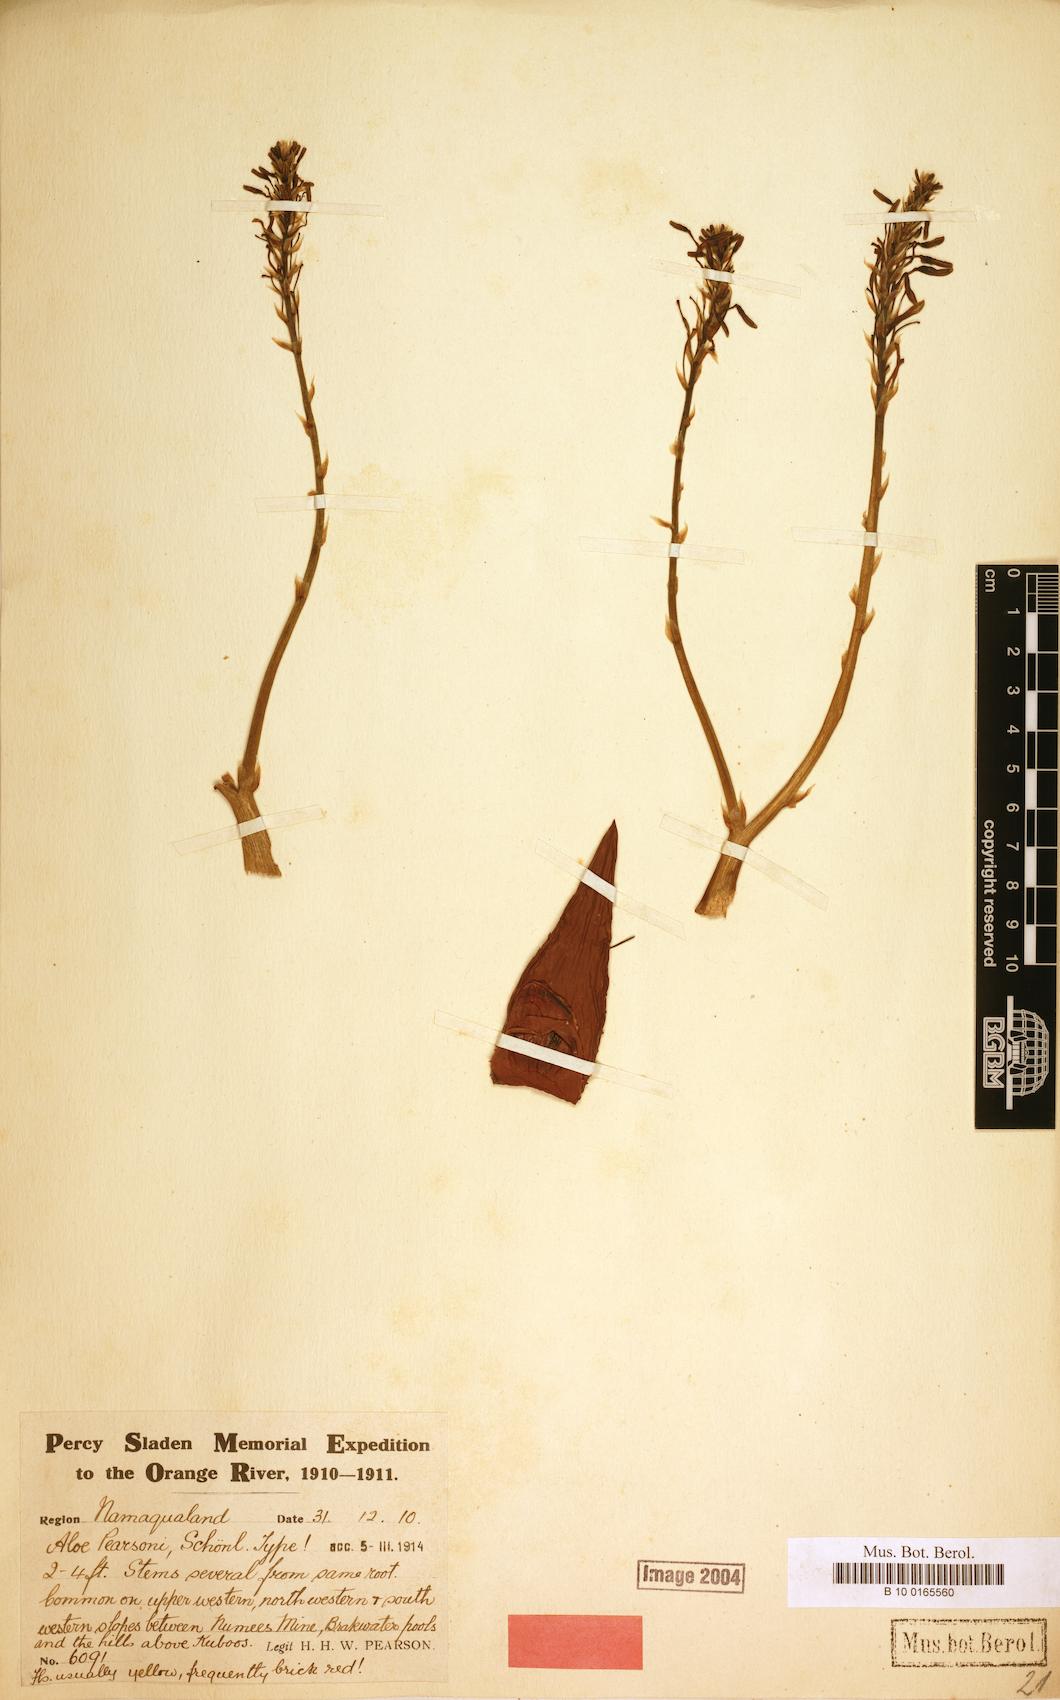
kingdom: Plantae
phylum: Tracheophyta
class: Liliopsida
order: Asparagales
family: Asphodelaceae
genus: Aloe
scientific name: Aloe pearsonii
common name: Pearson's aloe
